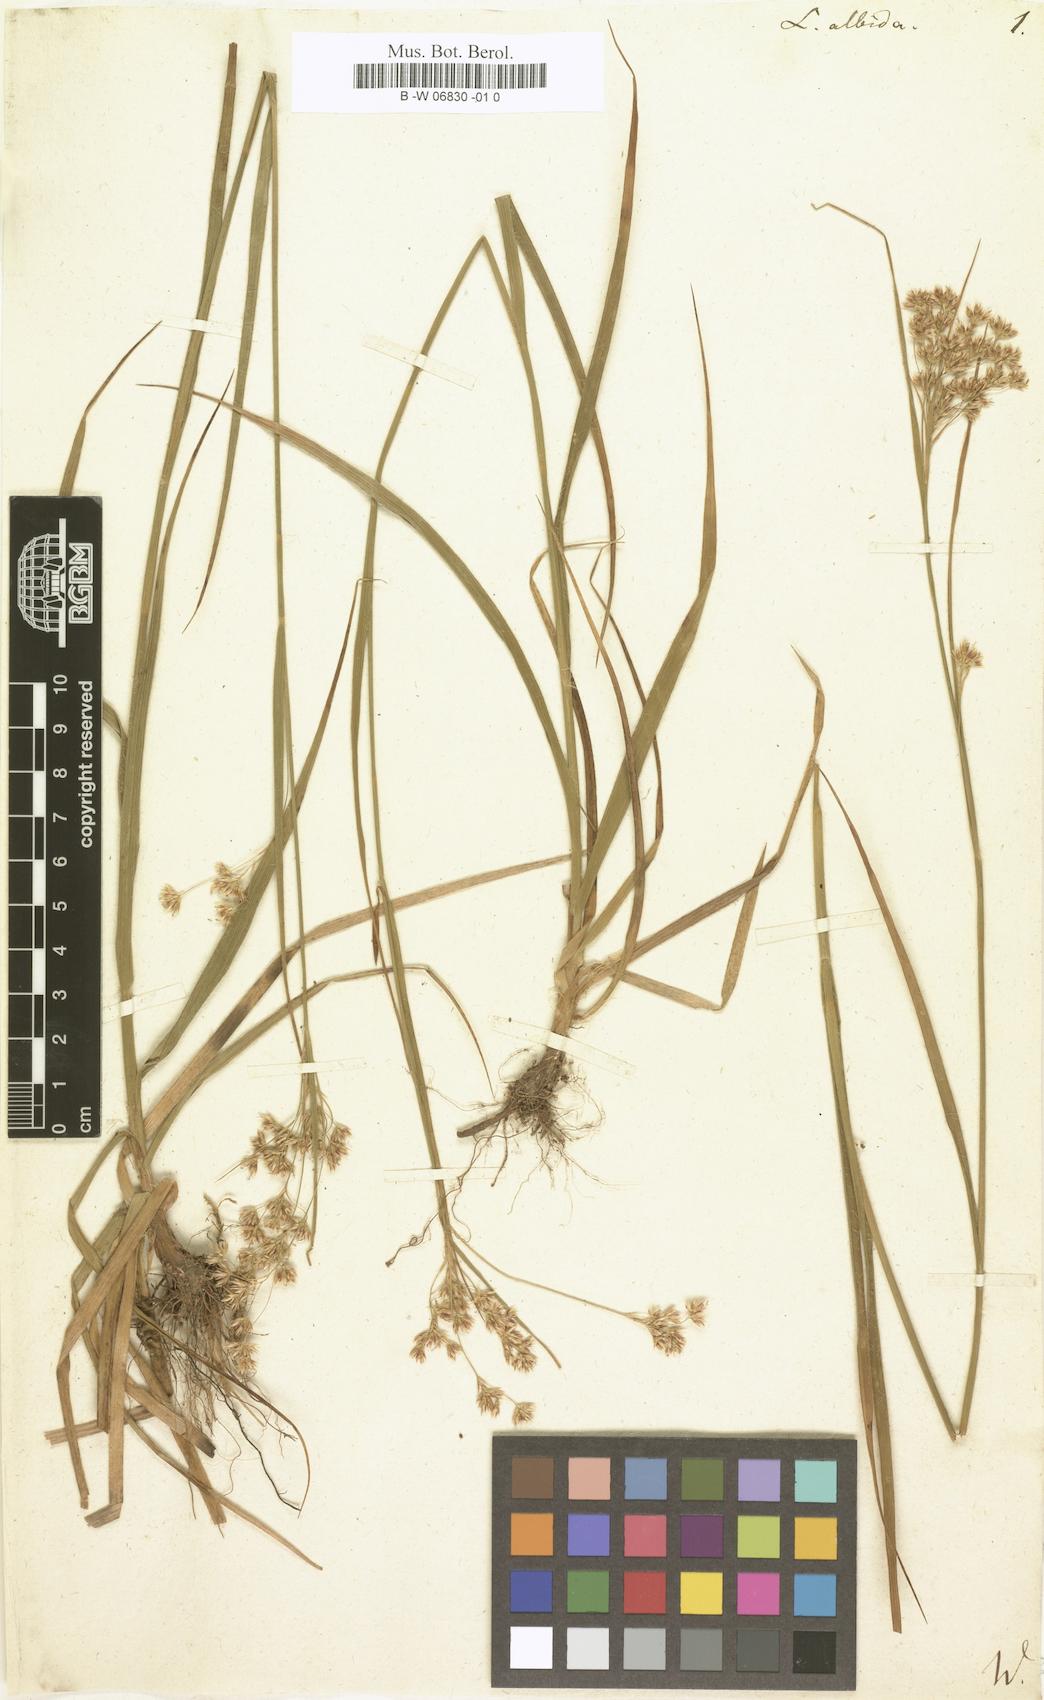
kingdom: Plantae
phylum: Tracheophyta
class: Liliopsida
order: Poales
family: Juncaceae
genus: Luzula
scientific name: Luzula albida
